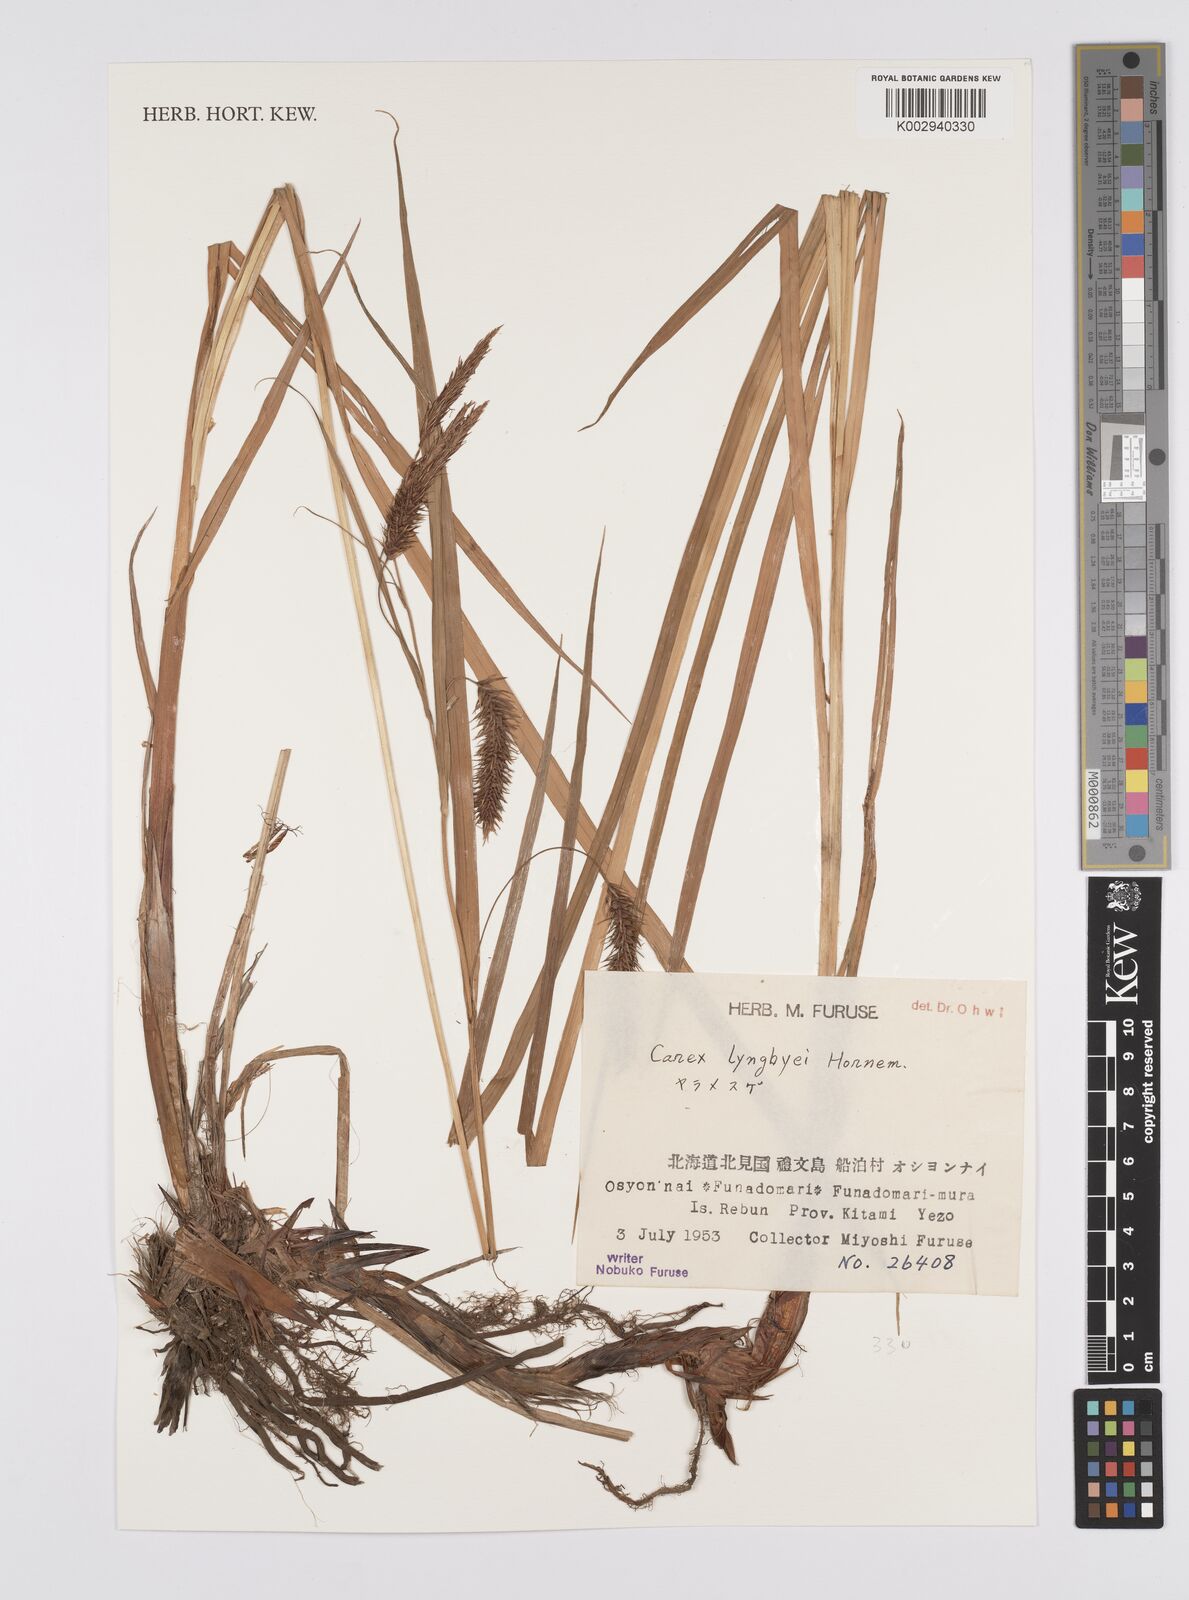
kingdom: Plantae
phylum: Tracheophyta
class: Liliopsida
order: Poales
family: Cyperaceae
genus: Carex
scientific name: Carex lyngbyei
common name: Lyngbye's sedge
